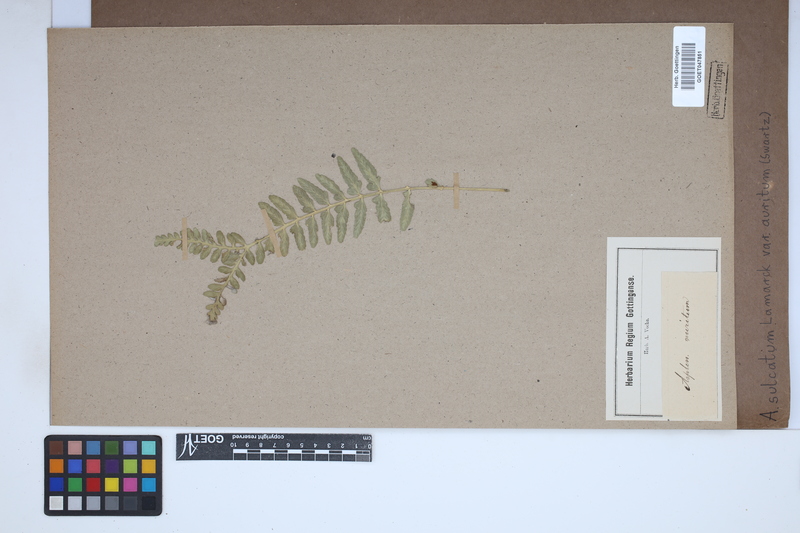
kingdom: Plantae
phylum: Tracheophyta
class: Polypodiopsida
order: Polypodiales
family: Aspleniaceae
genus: Asplenium
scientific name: Asplenium auritum
